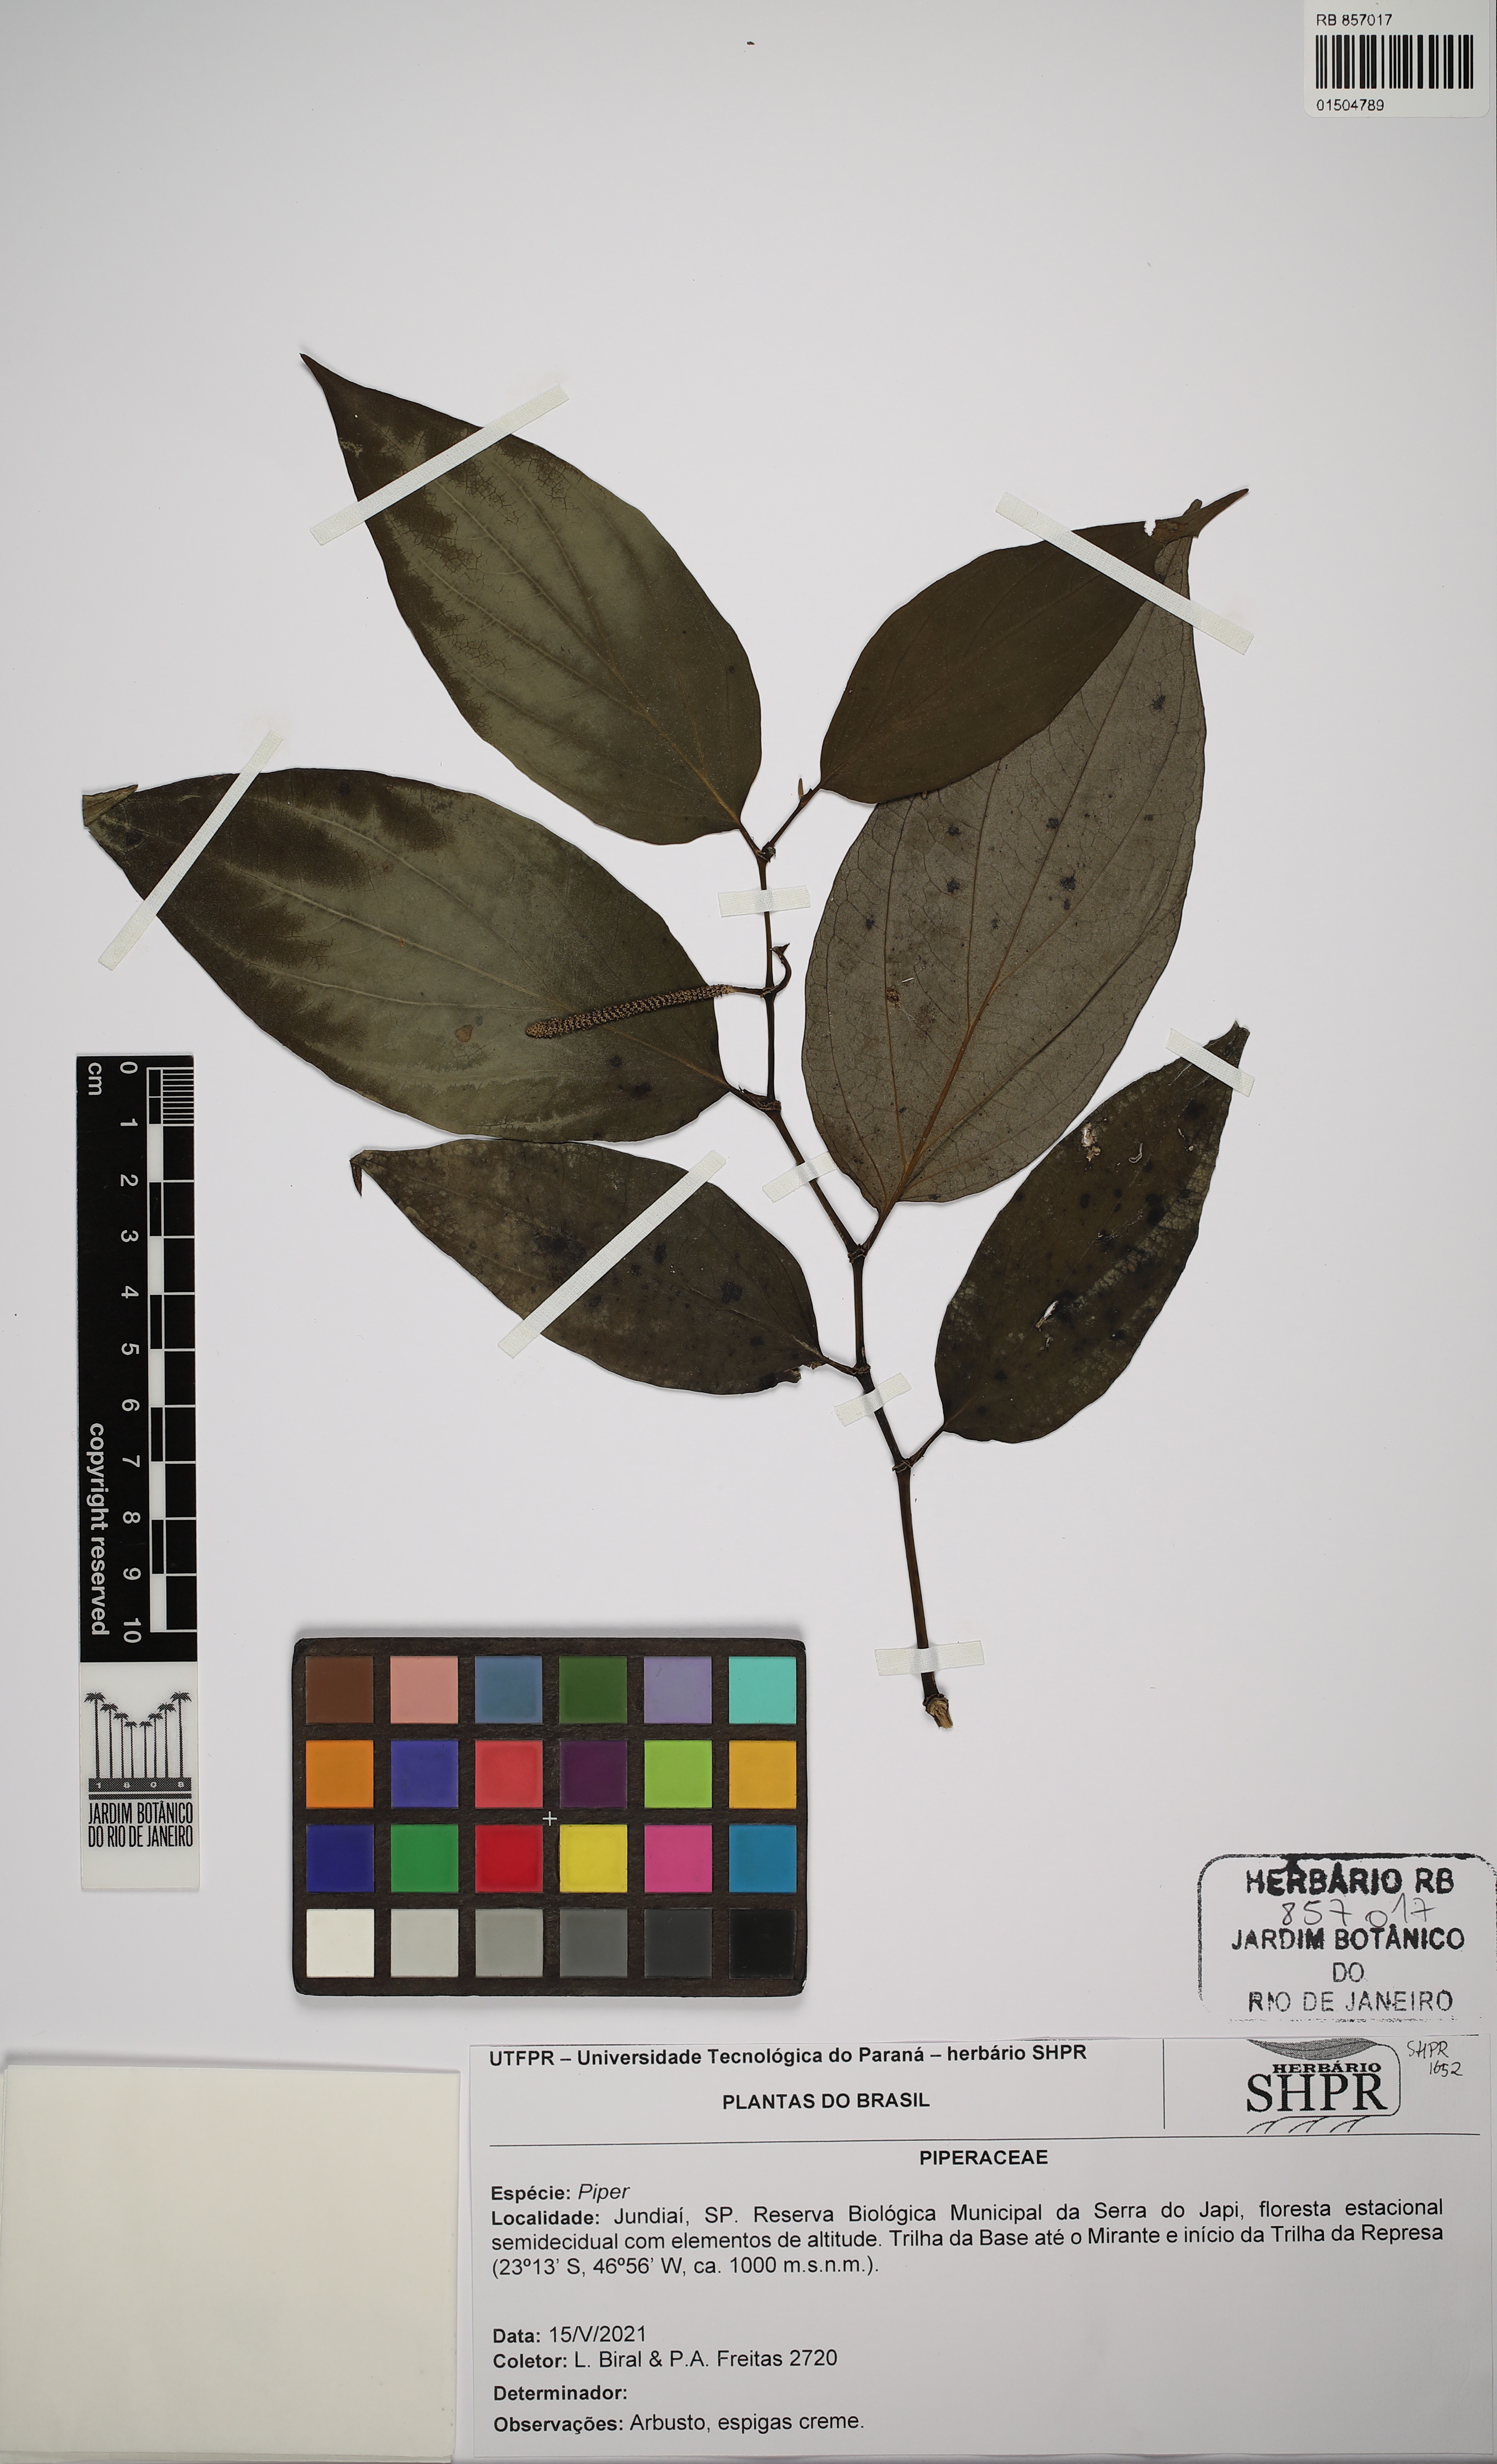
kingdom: Plantae
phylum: Tracheophyta
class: Magnoliopsida
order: Piperales
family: Piperaceae
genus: Piper
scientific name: Piper
